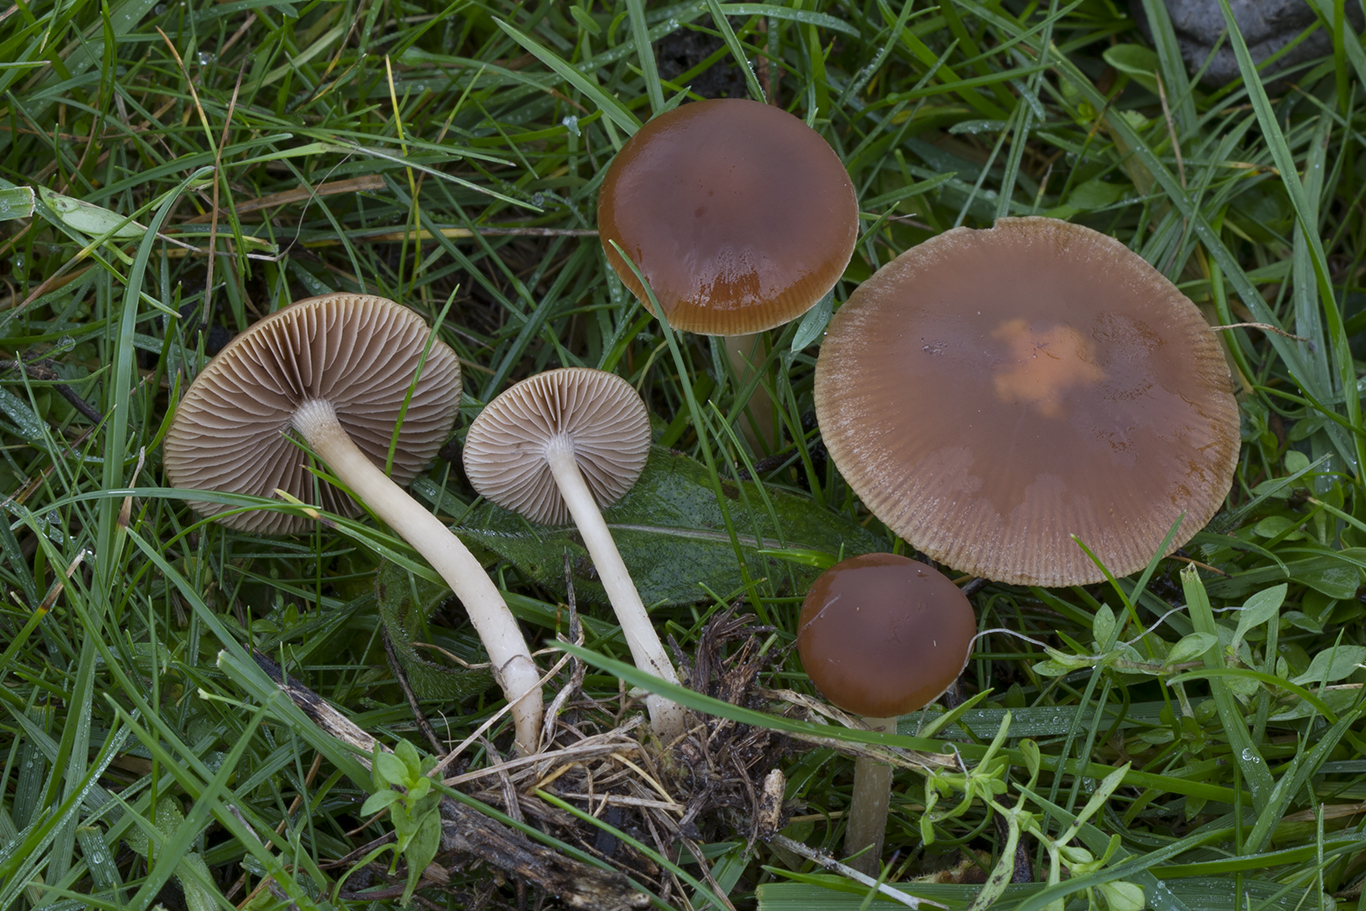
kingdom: Fungi
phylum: Basidiomycota
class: Agaricomycetes
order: Agaricales
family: Psathyrellaceae
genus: Psathyrella
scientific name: Psathyrella clivensis
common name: eng-mørkhat
